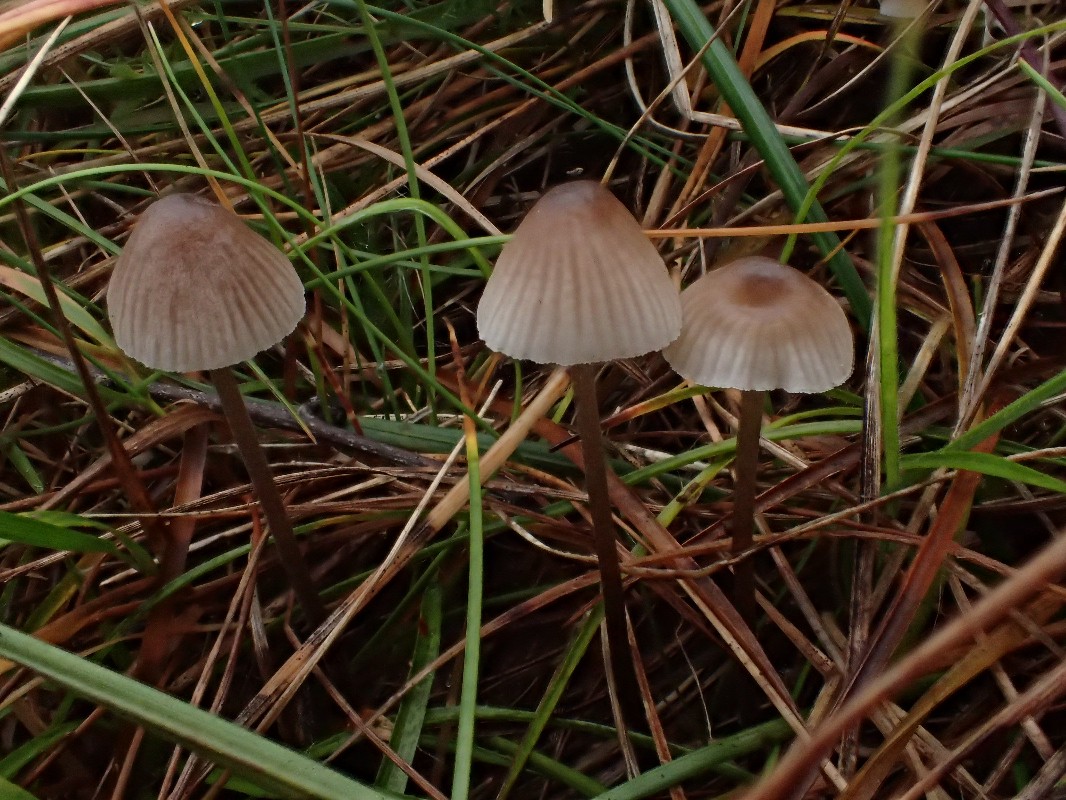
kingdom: Fungi
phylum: Basidiomycota
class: Agaricomycetes
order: Agaricales
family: Mycenaceae
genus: Mycena
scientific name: Mycena leptocephala
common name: klor-huesvamp
